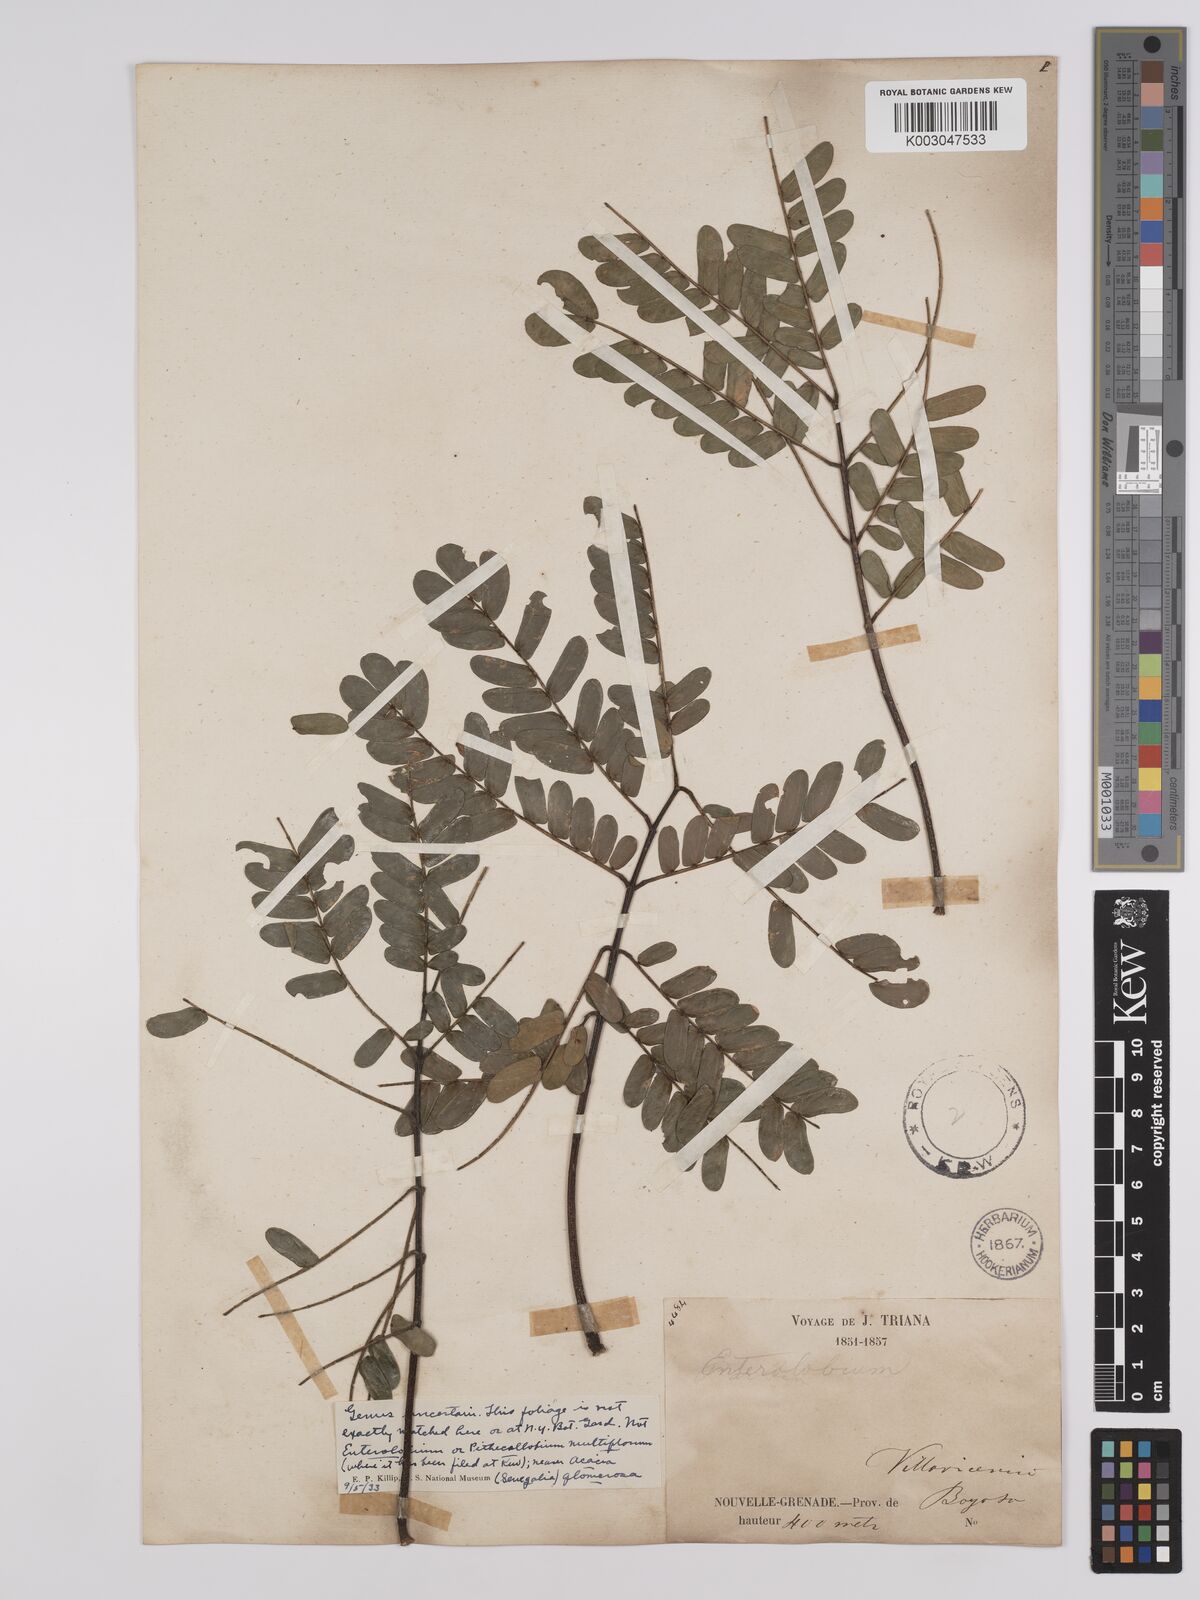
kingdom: Plantae
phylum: Tracheophyta
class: Magnoliopsida
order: Fabales
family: Fabaceae
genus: Albizia
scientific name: Albizia multiflora
